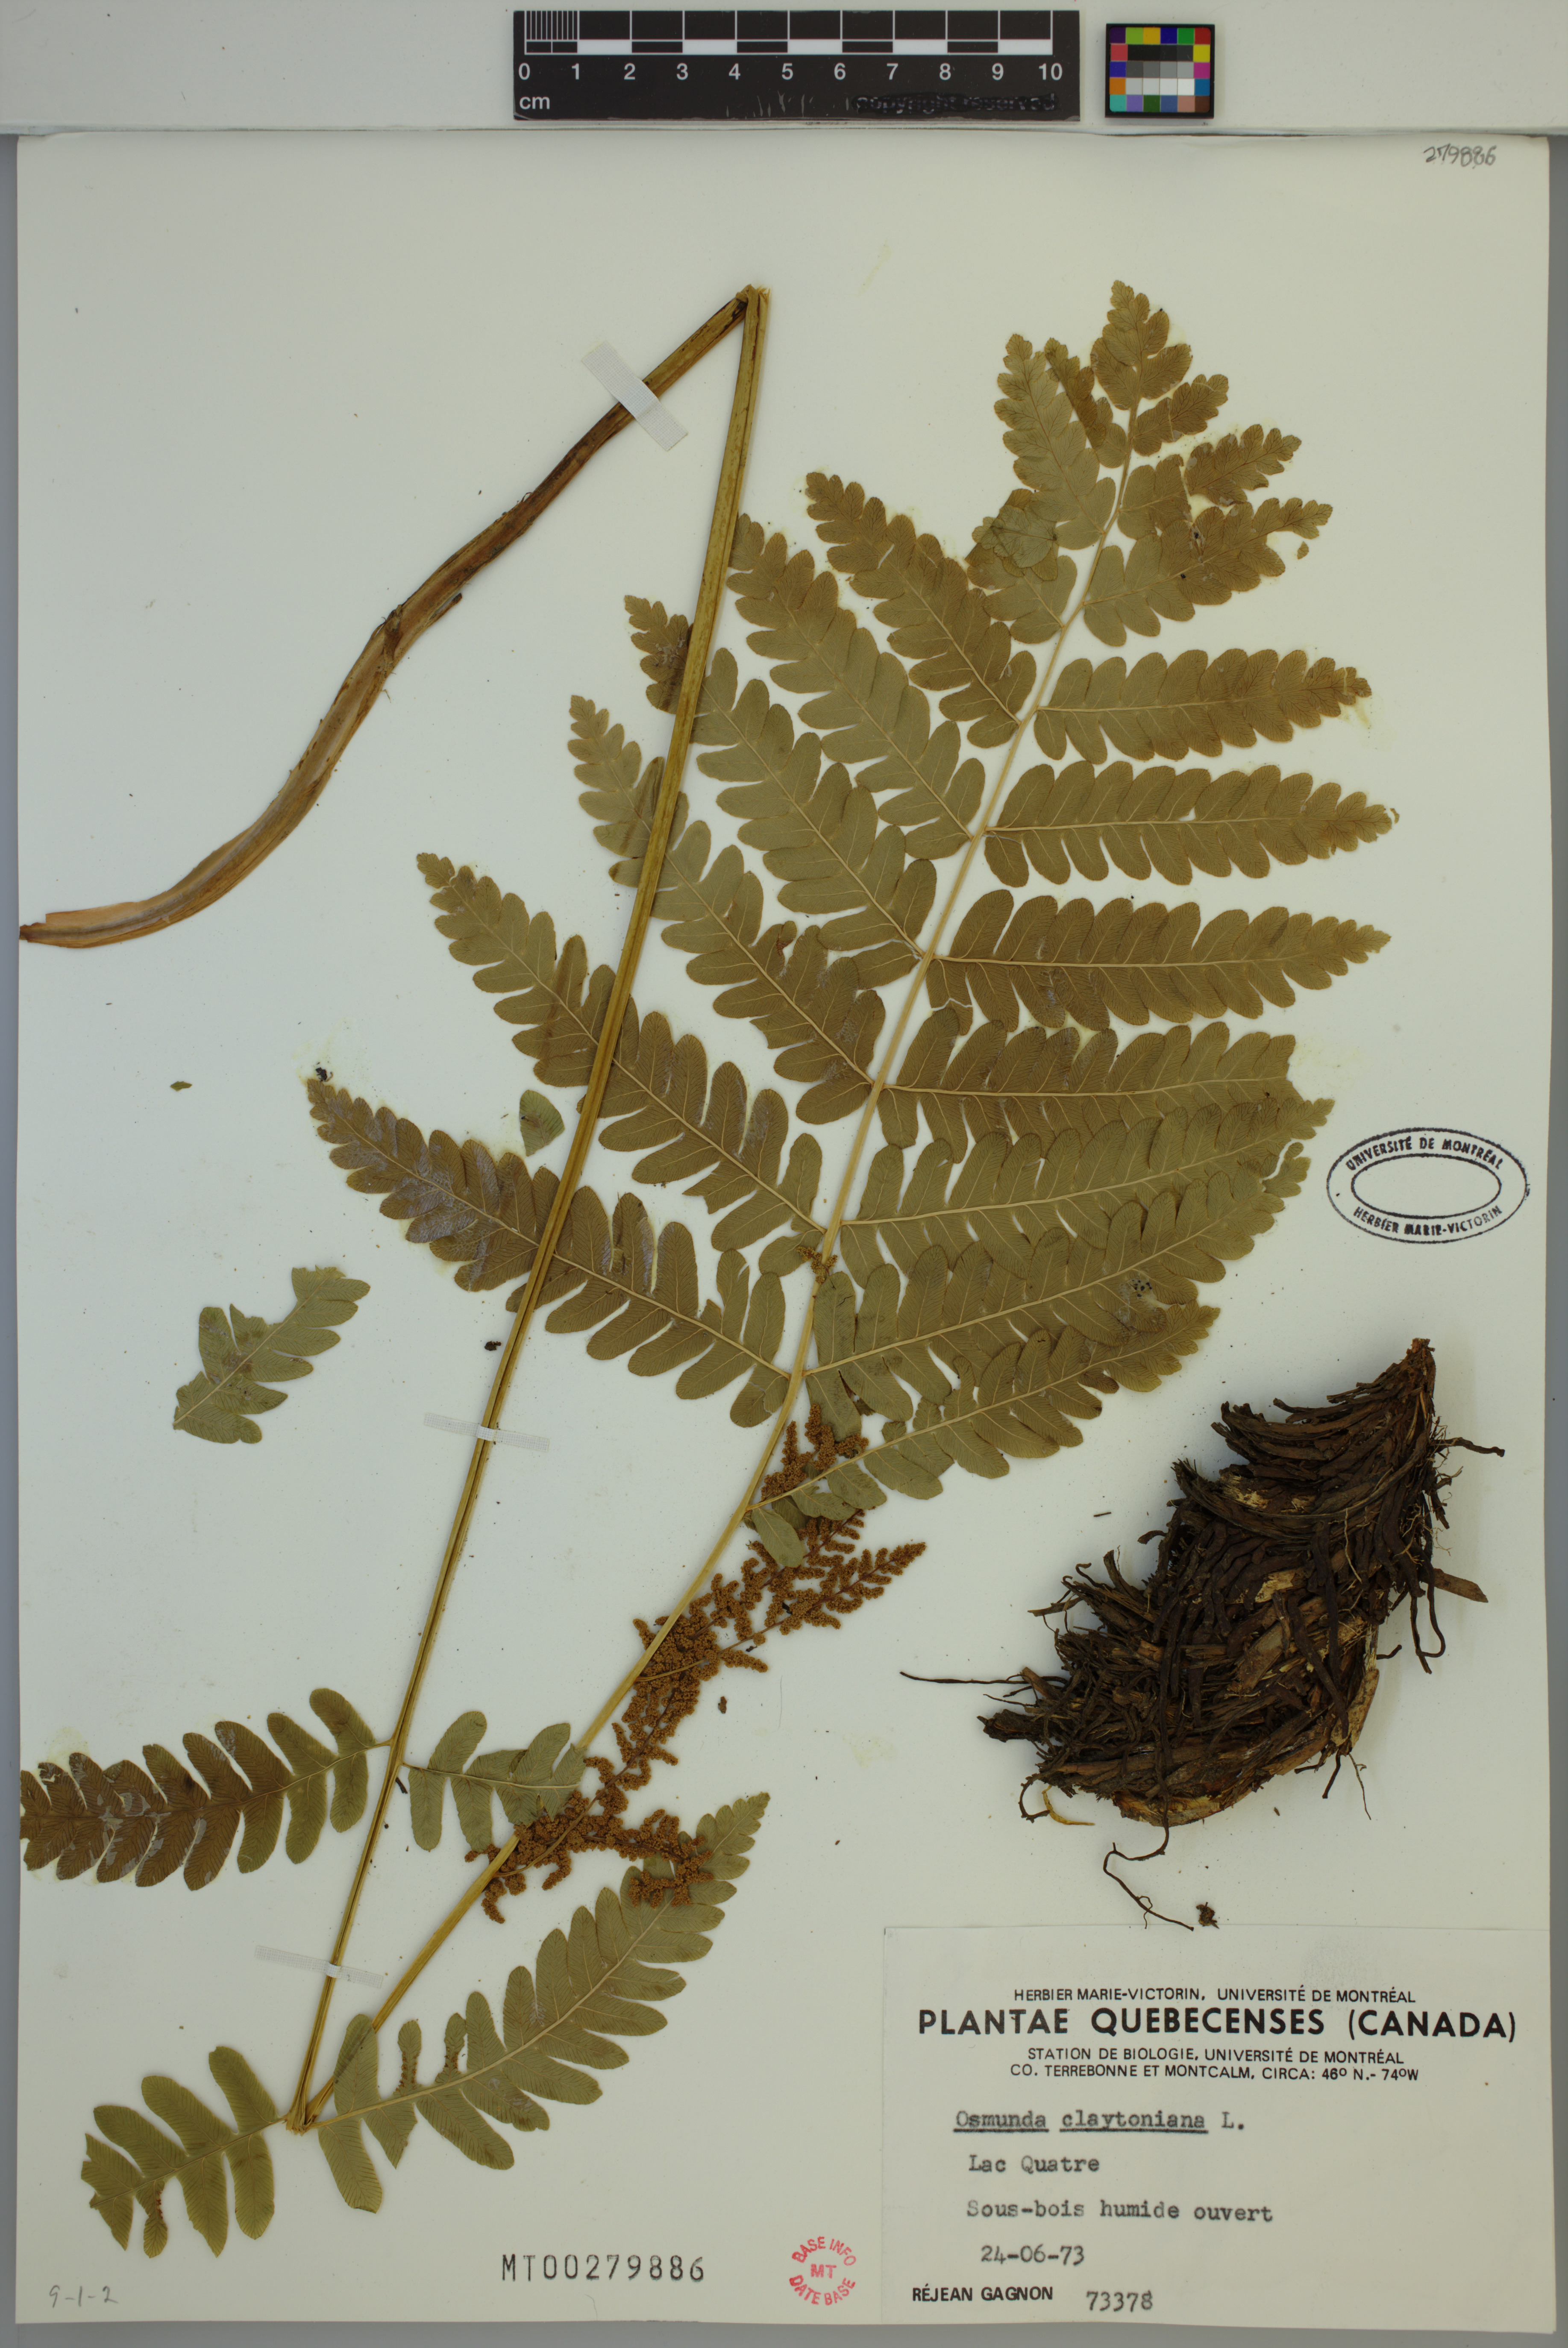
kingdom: Plantae
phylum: Tracheophyta
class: Polypodiopsida
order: Osmundales
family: Osmundaceae
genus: Claytosmunda
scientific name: Claytosmunda claytoniana
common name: Clayton's fern
